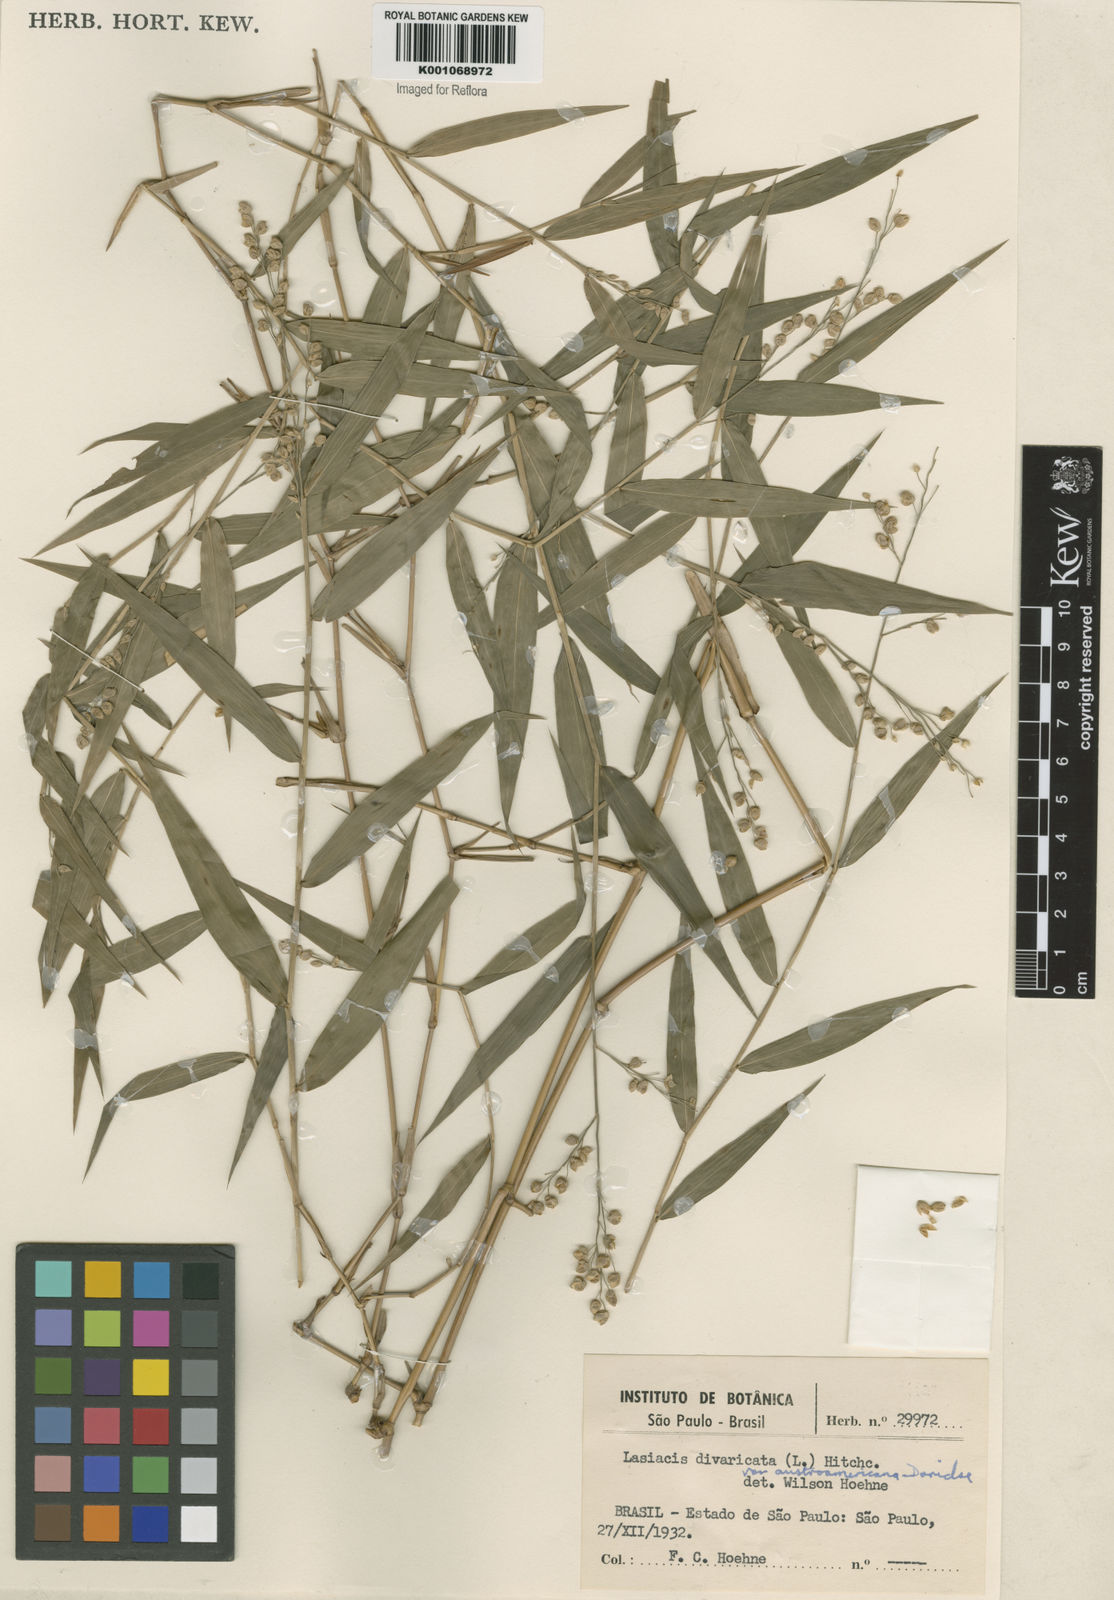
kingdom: Plantae
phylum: Tracheophyta
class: Liliopsida
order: Poales
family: Poaceae
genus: Lasiacis
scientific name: Lasiacis divaricata
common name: Smallcane
